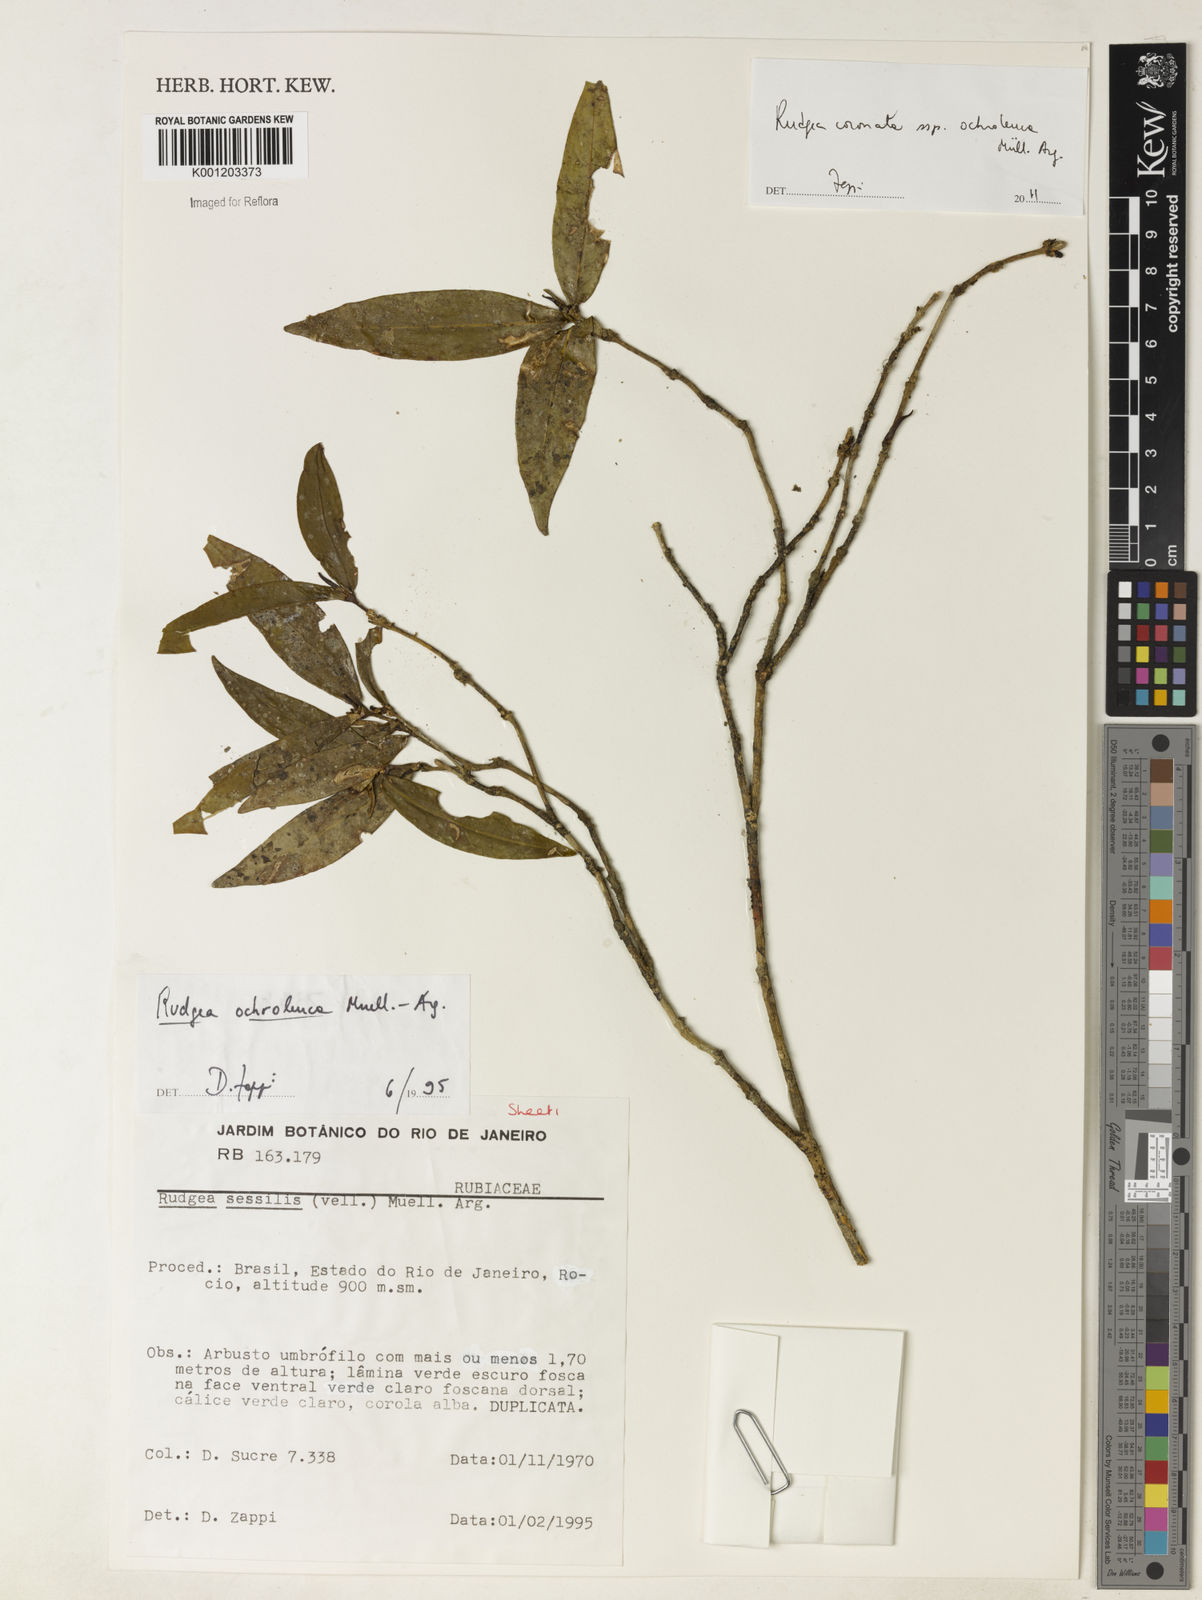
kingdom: Plantae
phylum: Tracheophyta
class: Magnoliopsida
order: Gentianales
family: Rubiaceae
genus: Rudgea
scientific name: Rudgea
